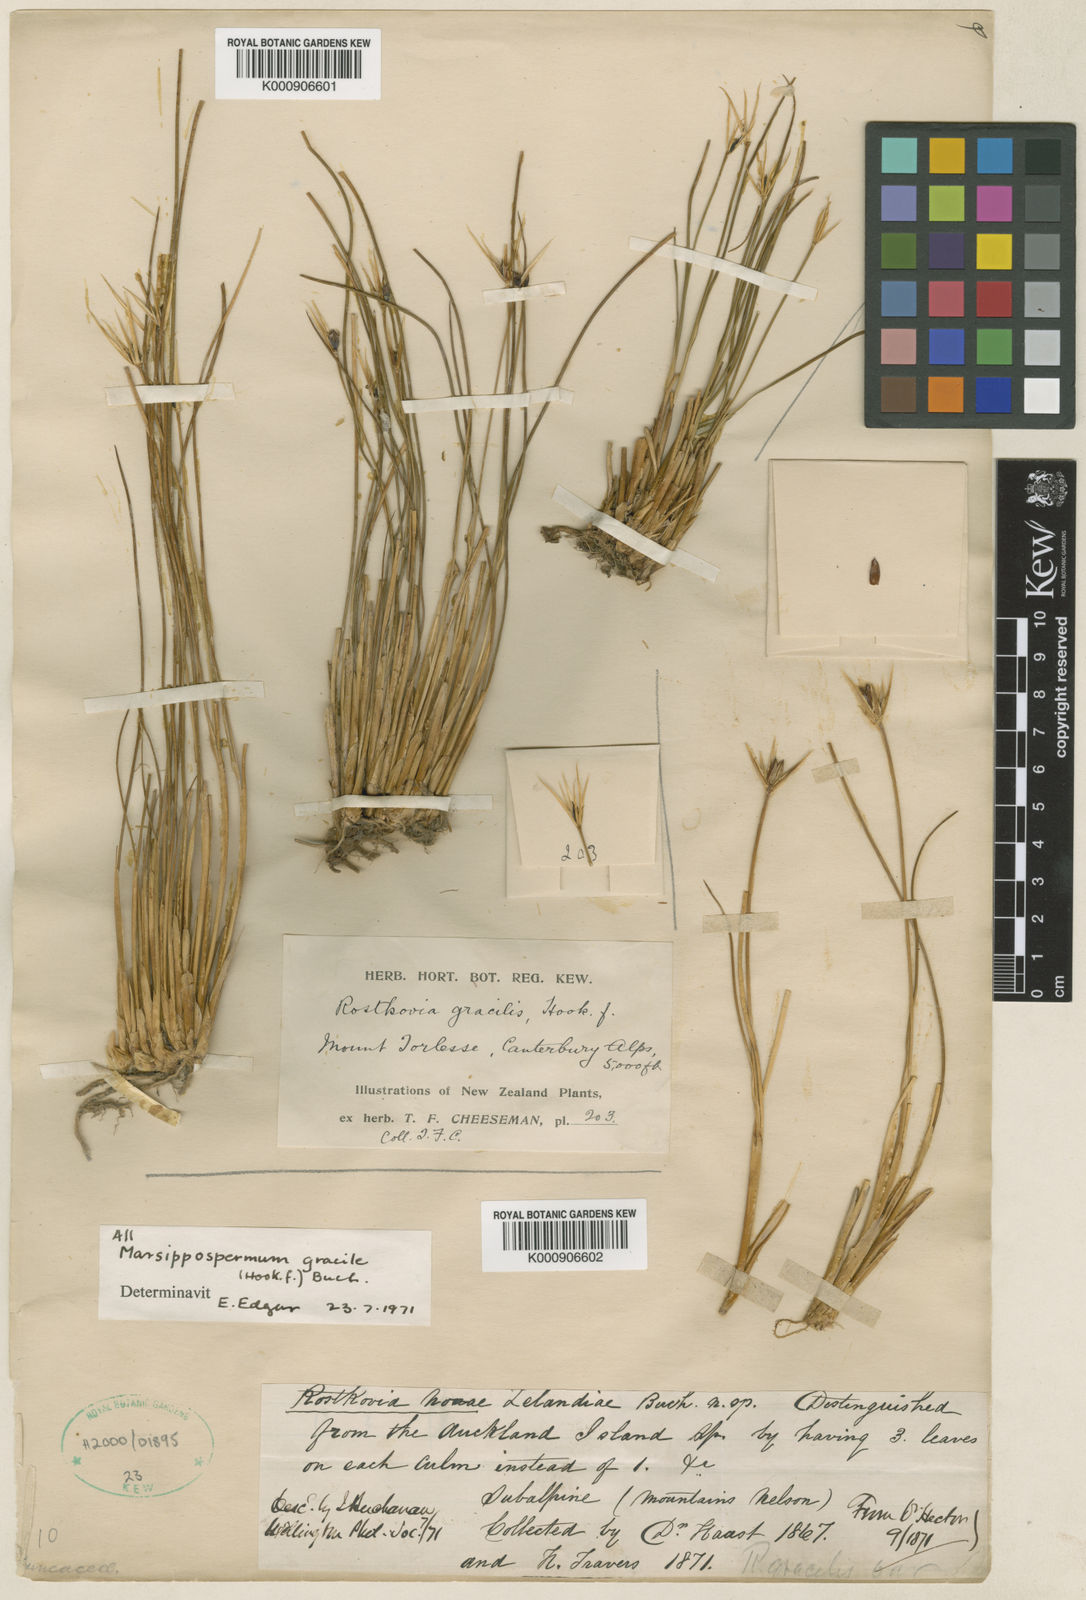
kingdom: Plantae
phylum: Tracheophyta
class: Liliopsida
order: Poales
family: Juncaceae
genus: Marsippospermum
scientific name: Marsippospermum gracile
